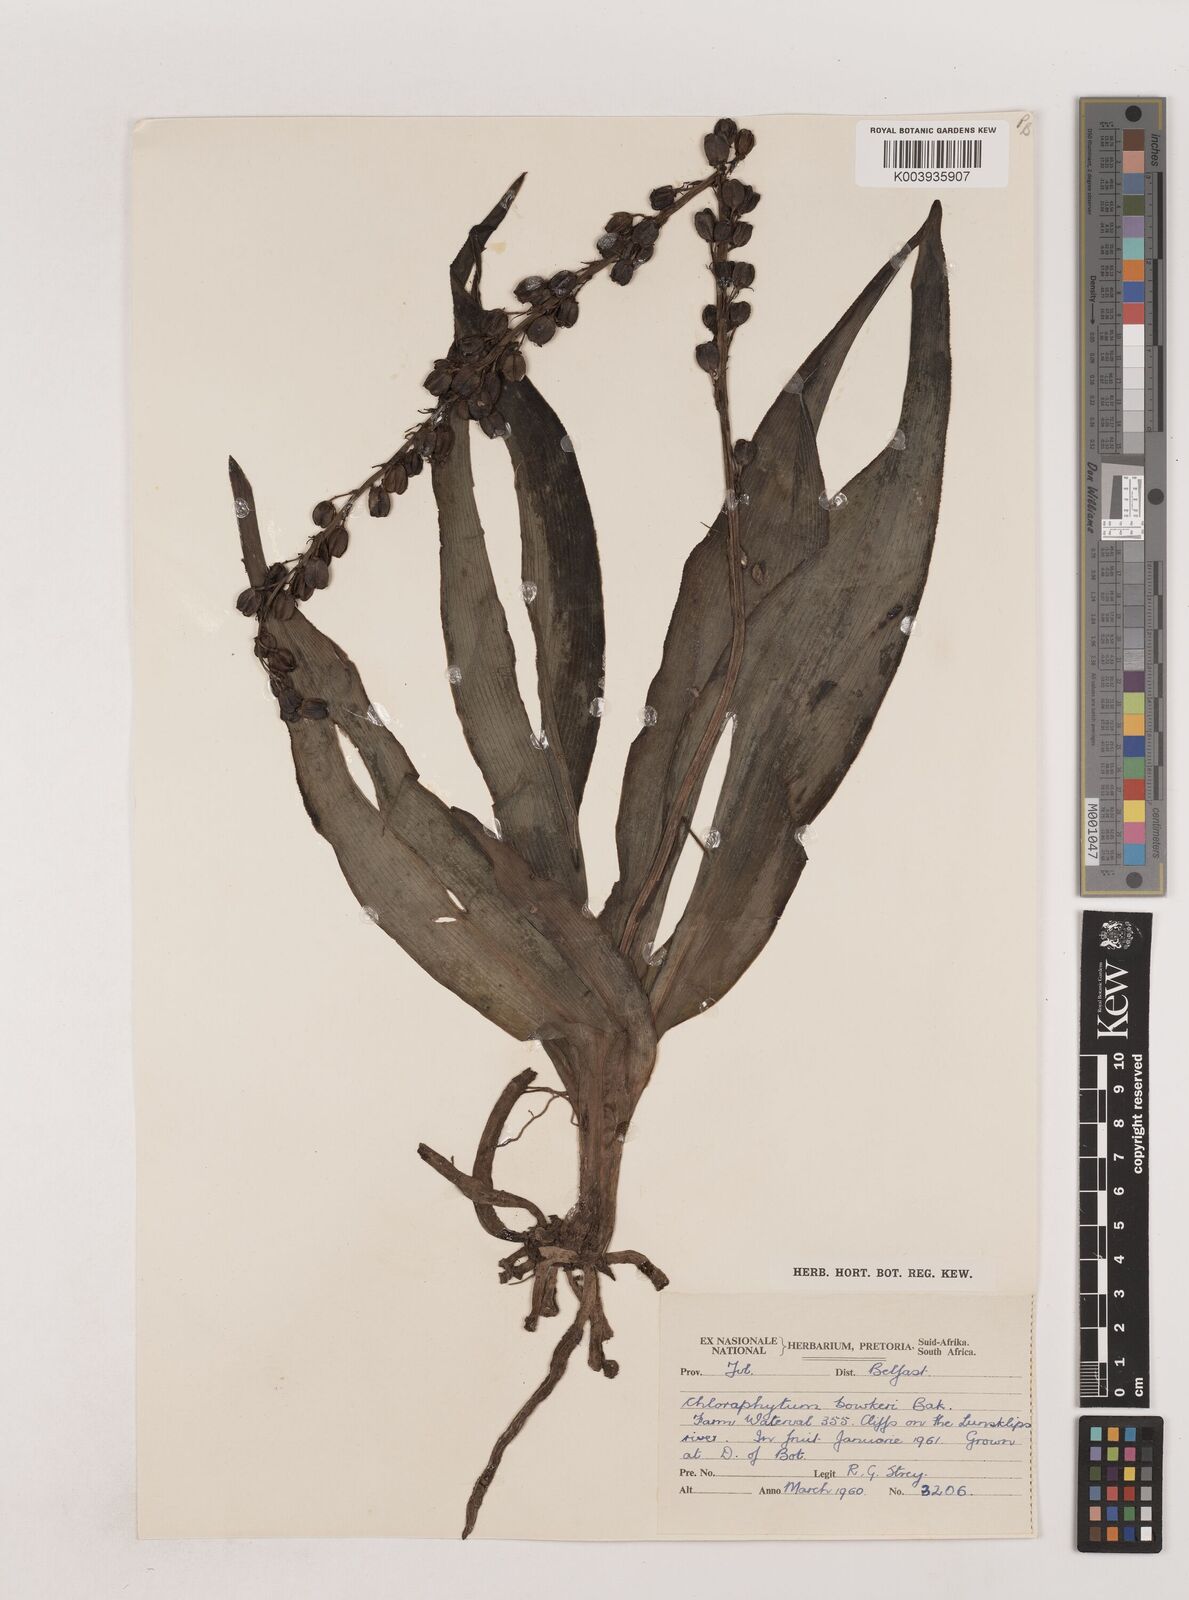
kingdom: Plantae
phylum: Tracheophyta
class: Liliopsida
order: Asparagales
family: Asparagaceae
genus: Chlorophytum
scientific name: Chlorophytum bowkeri
